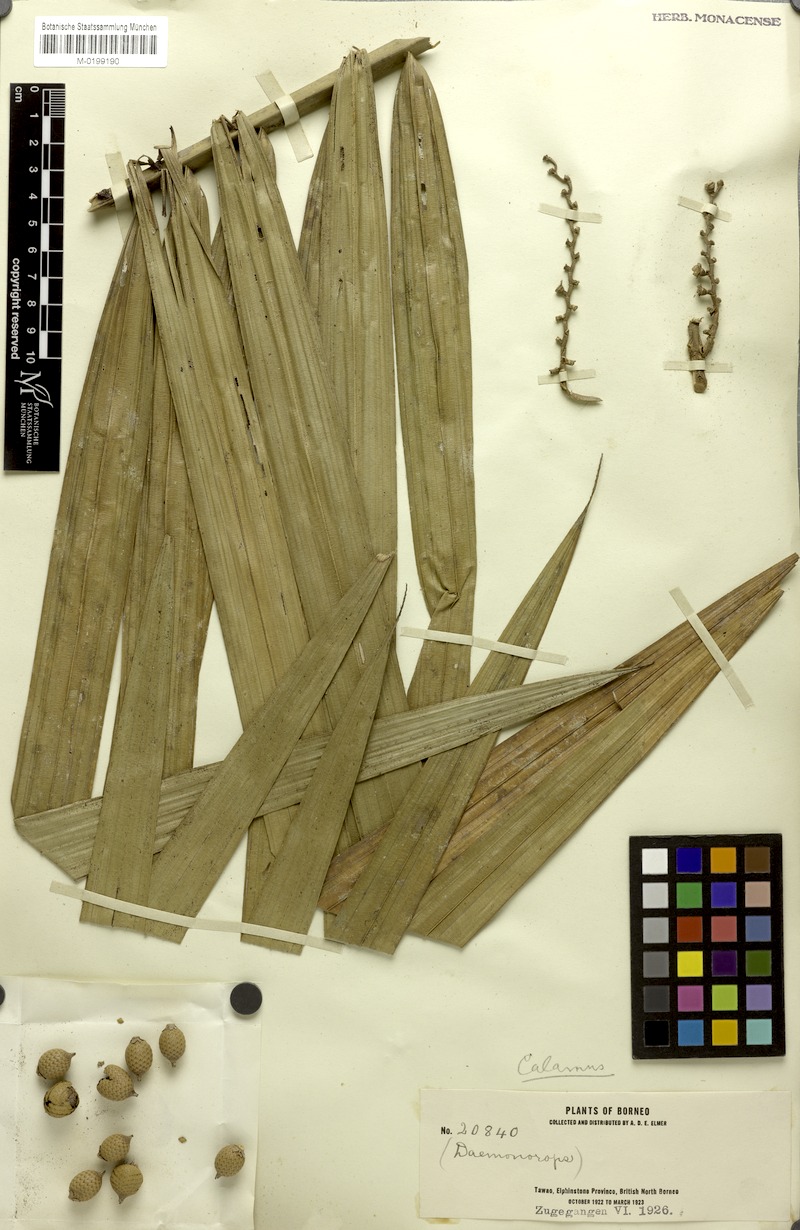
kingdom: Plantae
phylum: Tracheophyta
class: Liliopsida
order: Arecales
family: Arecaceae
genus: Calamus
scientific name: Calamus longipes
